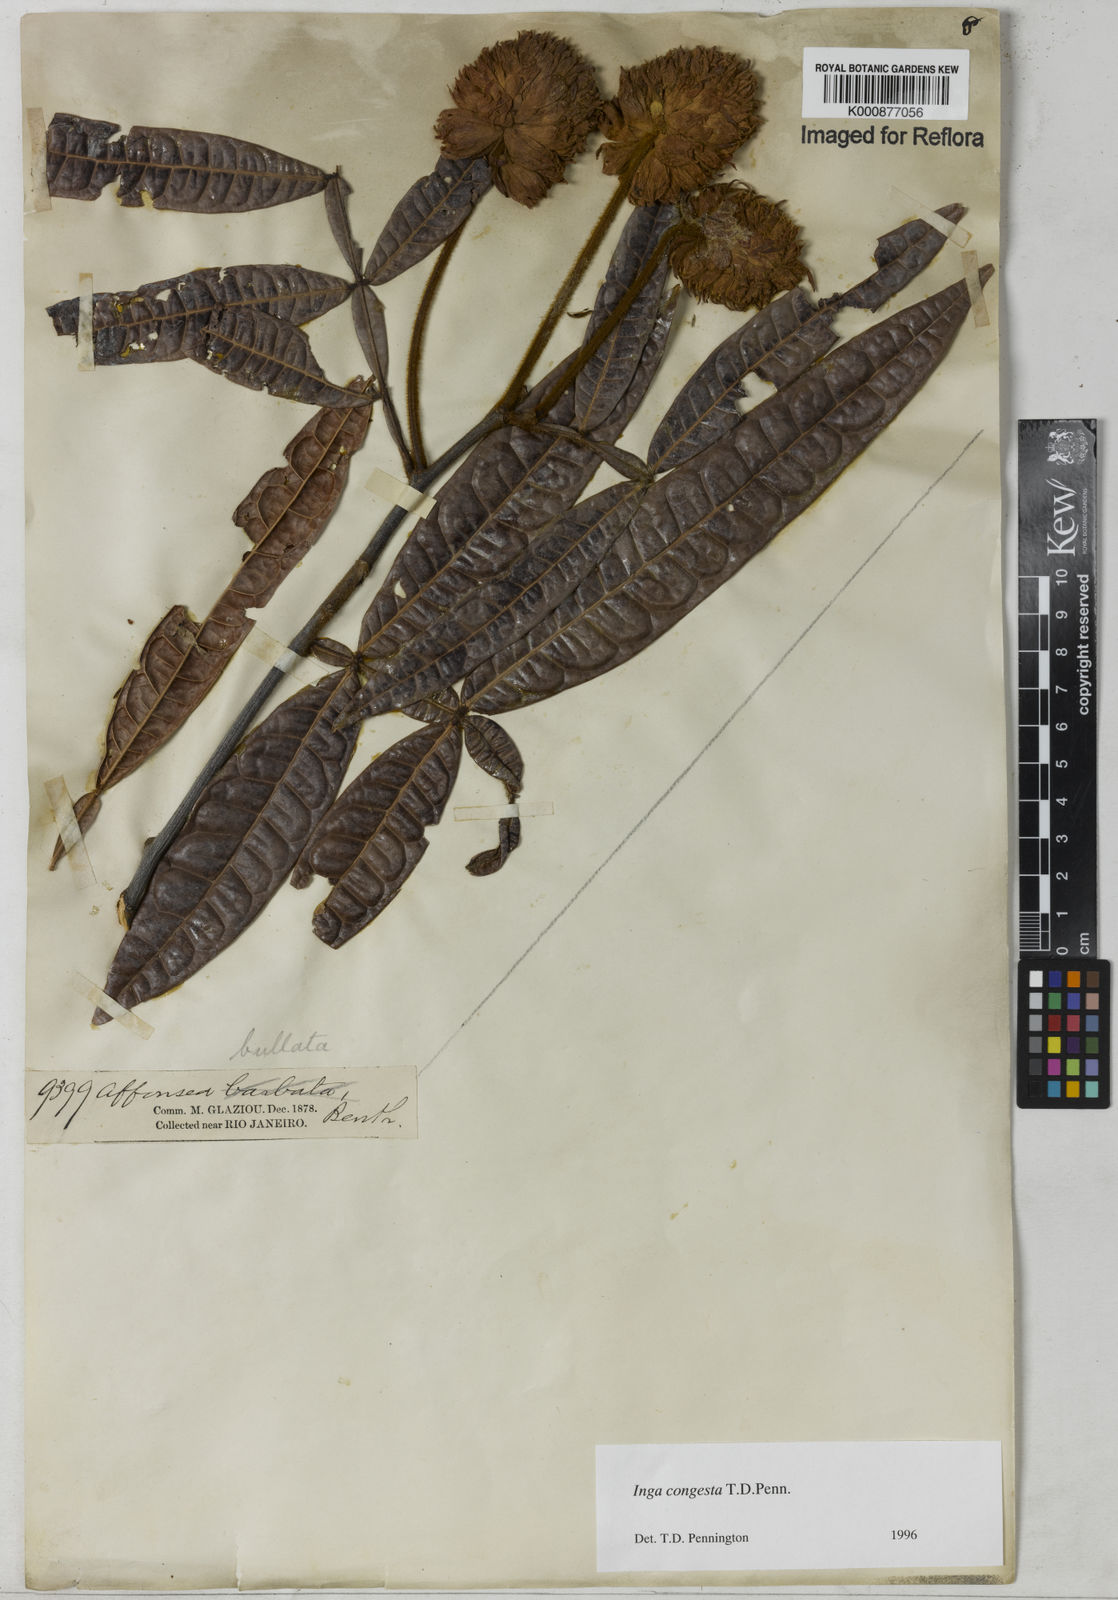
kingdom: Plantae
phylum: Tracheophyta
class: Magnoliopsida
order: Fabales
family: Fabaceae
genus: Inga
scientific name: Inga congesta
